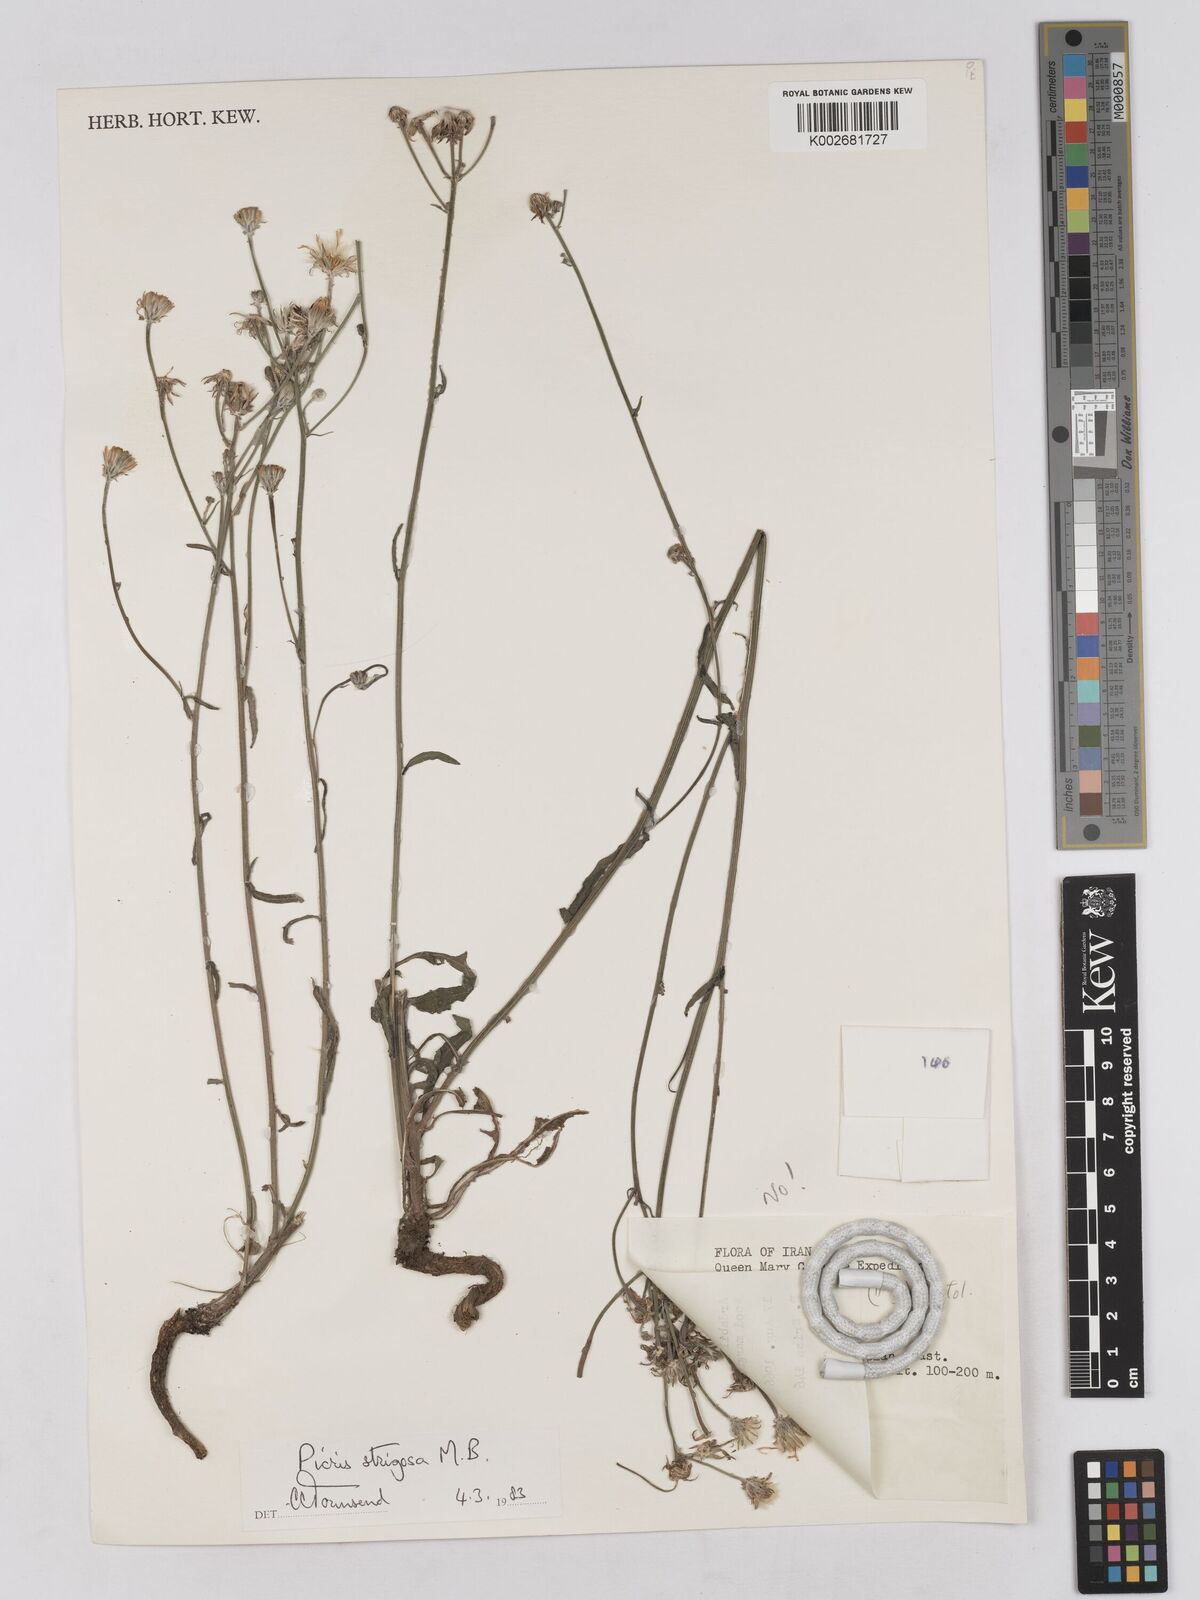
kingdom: Plantae
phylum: Tracheophyta
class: Magnoliopsida
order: Asterales
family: Asteraceae
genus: Tolpis
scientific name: Tolpis virgata
